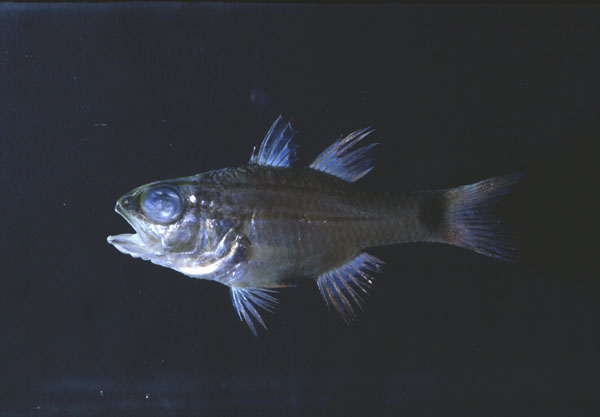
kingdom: Animalia
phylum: Chordata
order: Perciformes
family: Apogonidae
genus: Ostorhinchus
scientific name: Ostorhinchus fukuii
